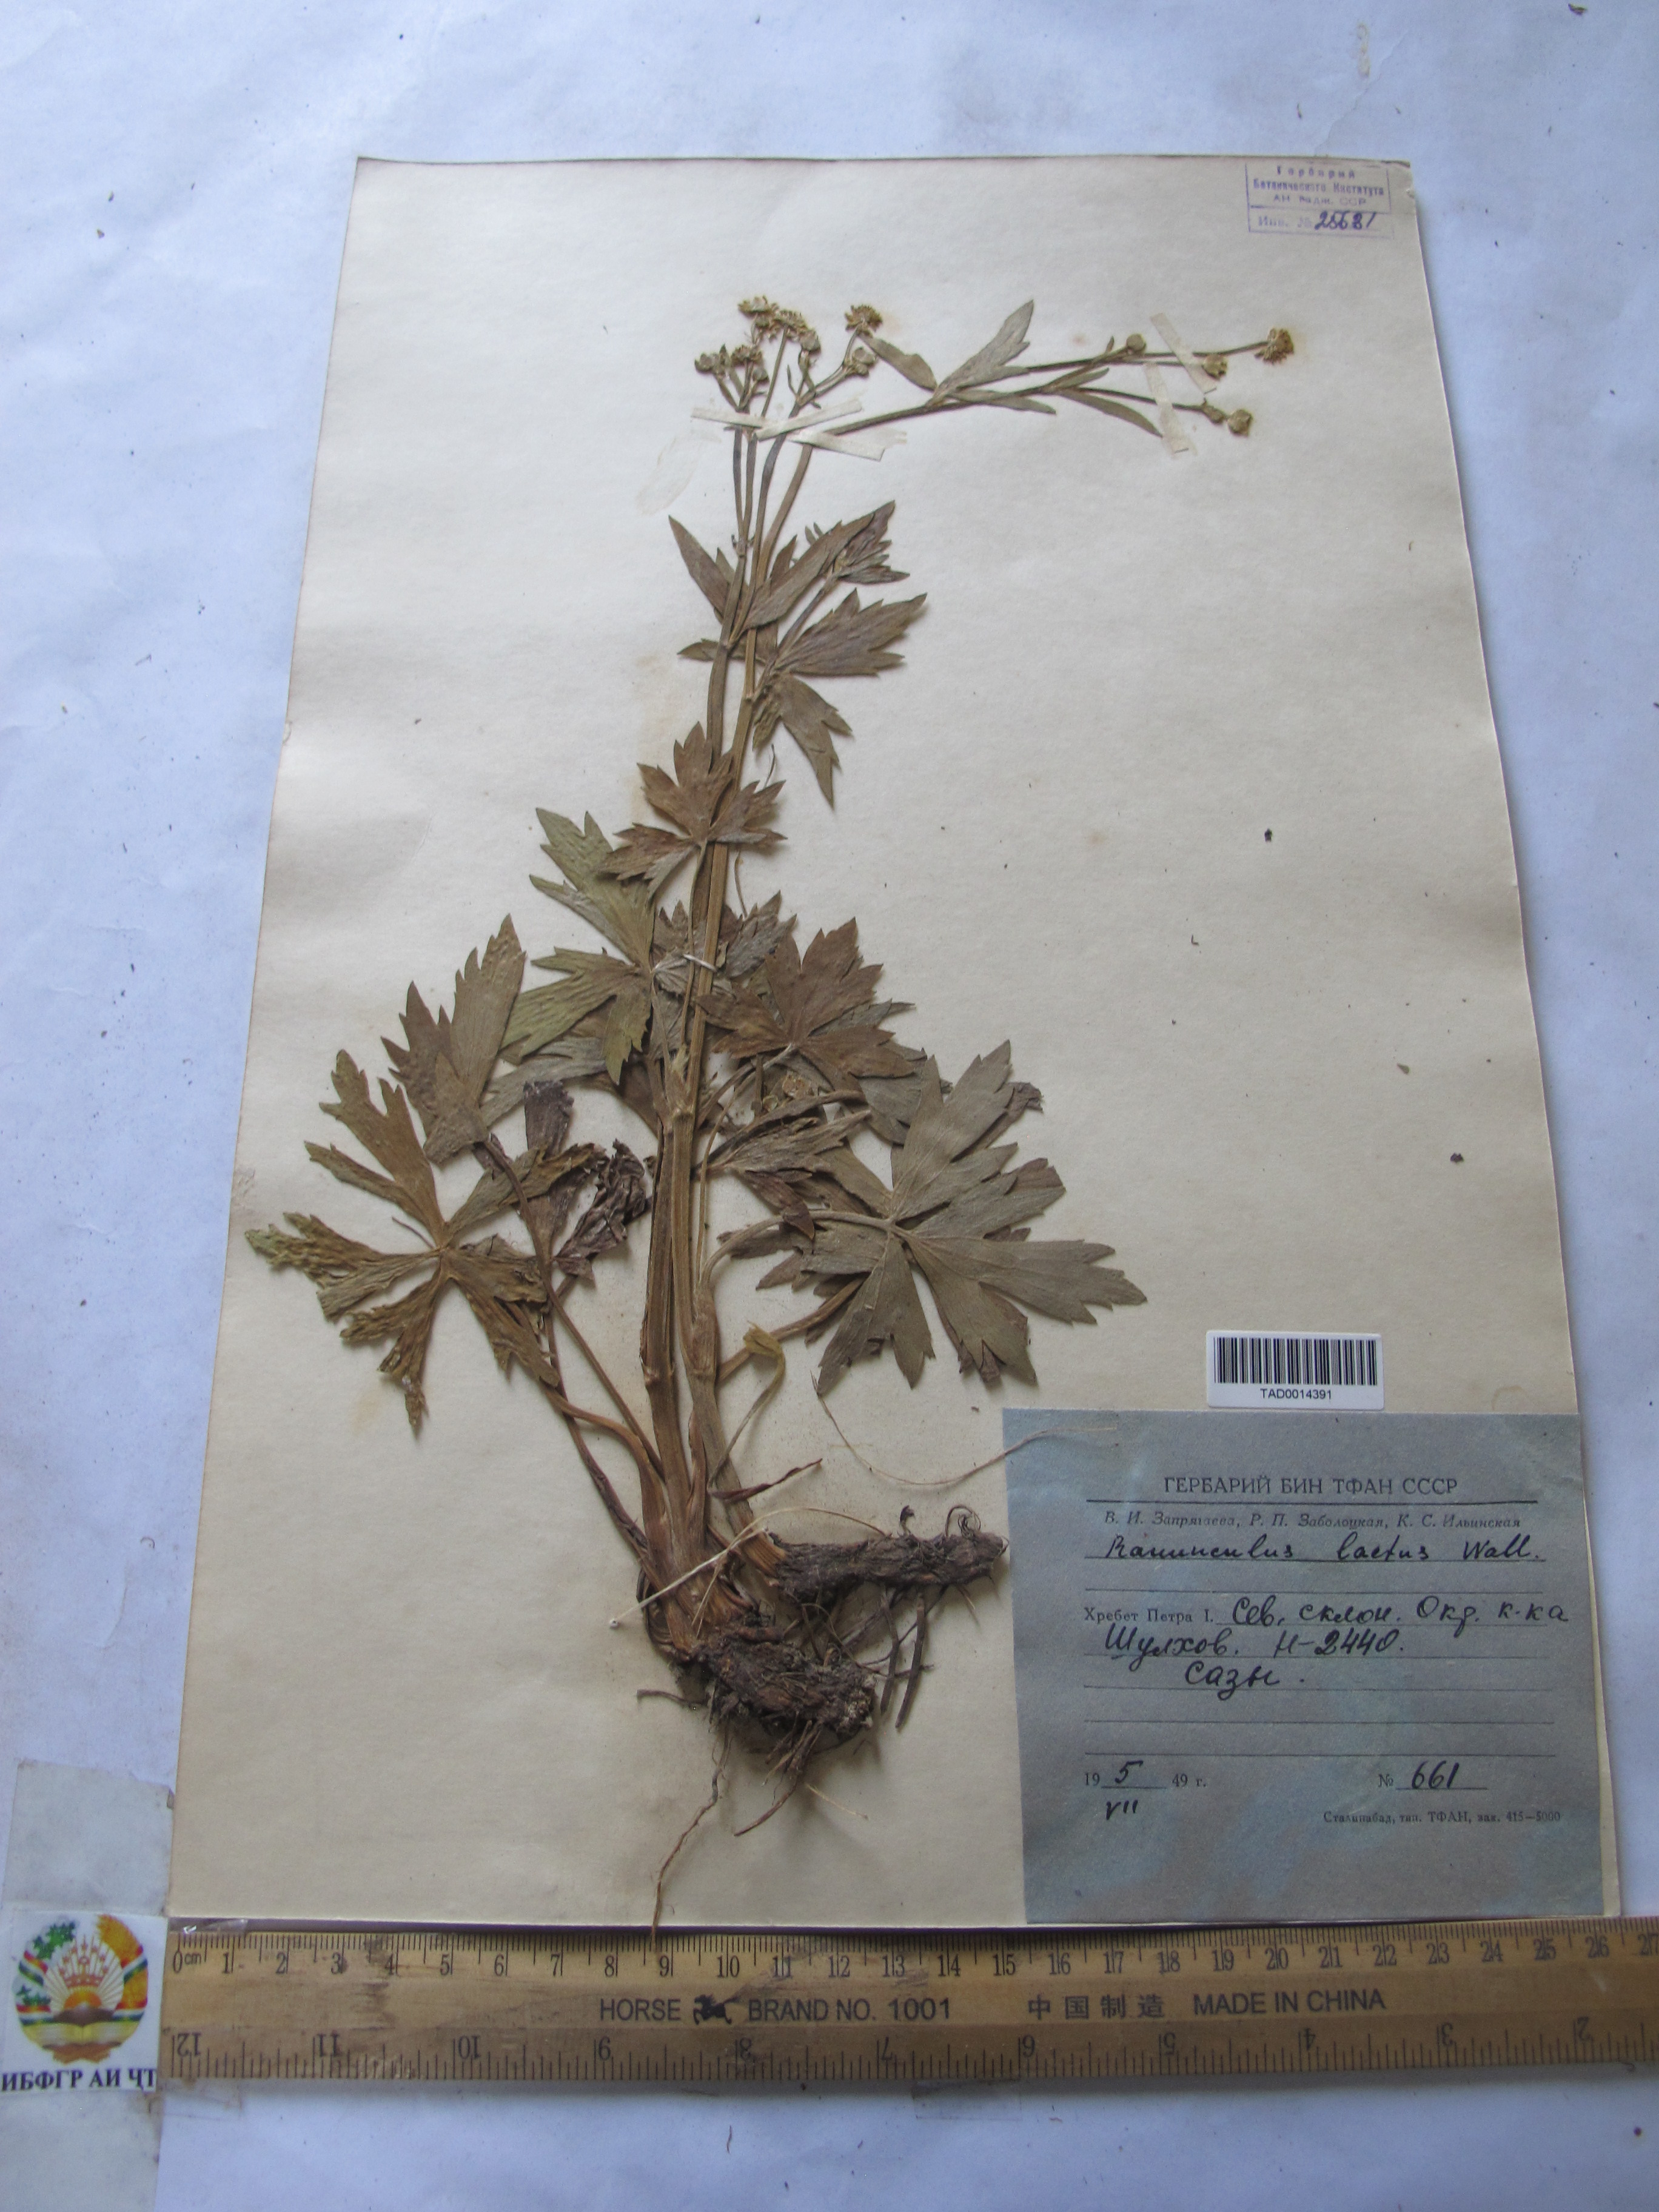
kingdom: Plantae
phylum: Tracheophyta
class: Magnoliopsida
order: Ranunculales
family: Ranunculaceae
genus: Ranunculus
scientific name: Ranunculus distans
